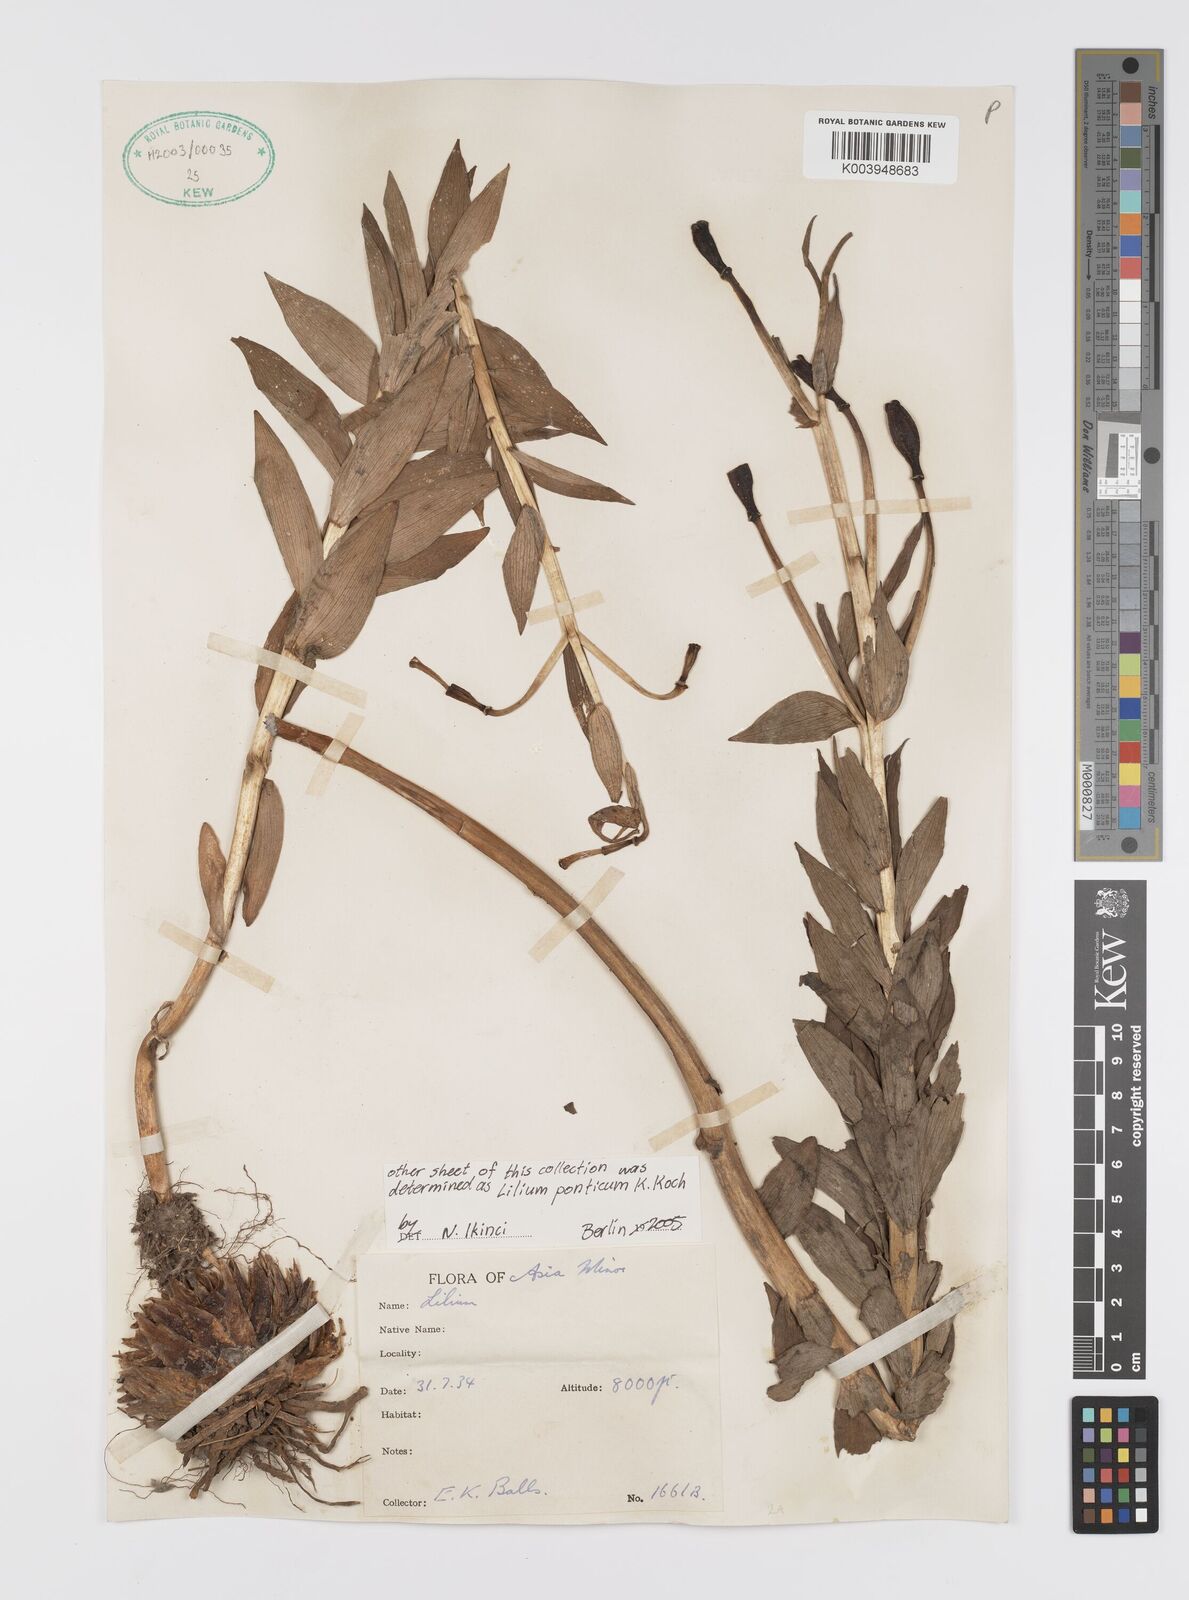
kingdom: Plantae
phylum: Tracheophyta
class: Liliopsida
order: Liliales
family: Liliaceae
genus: Lilium
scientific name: Lilium ponticum
